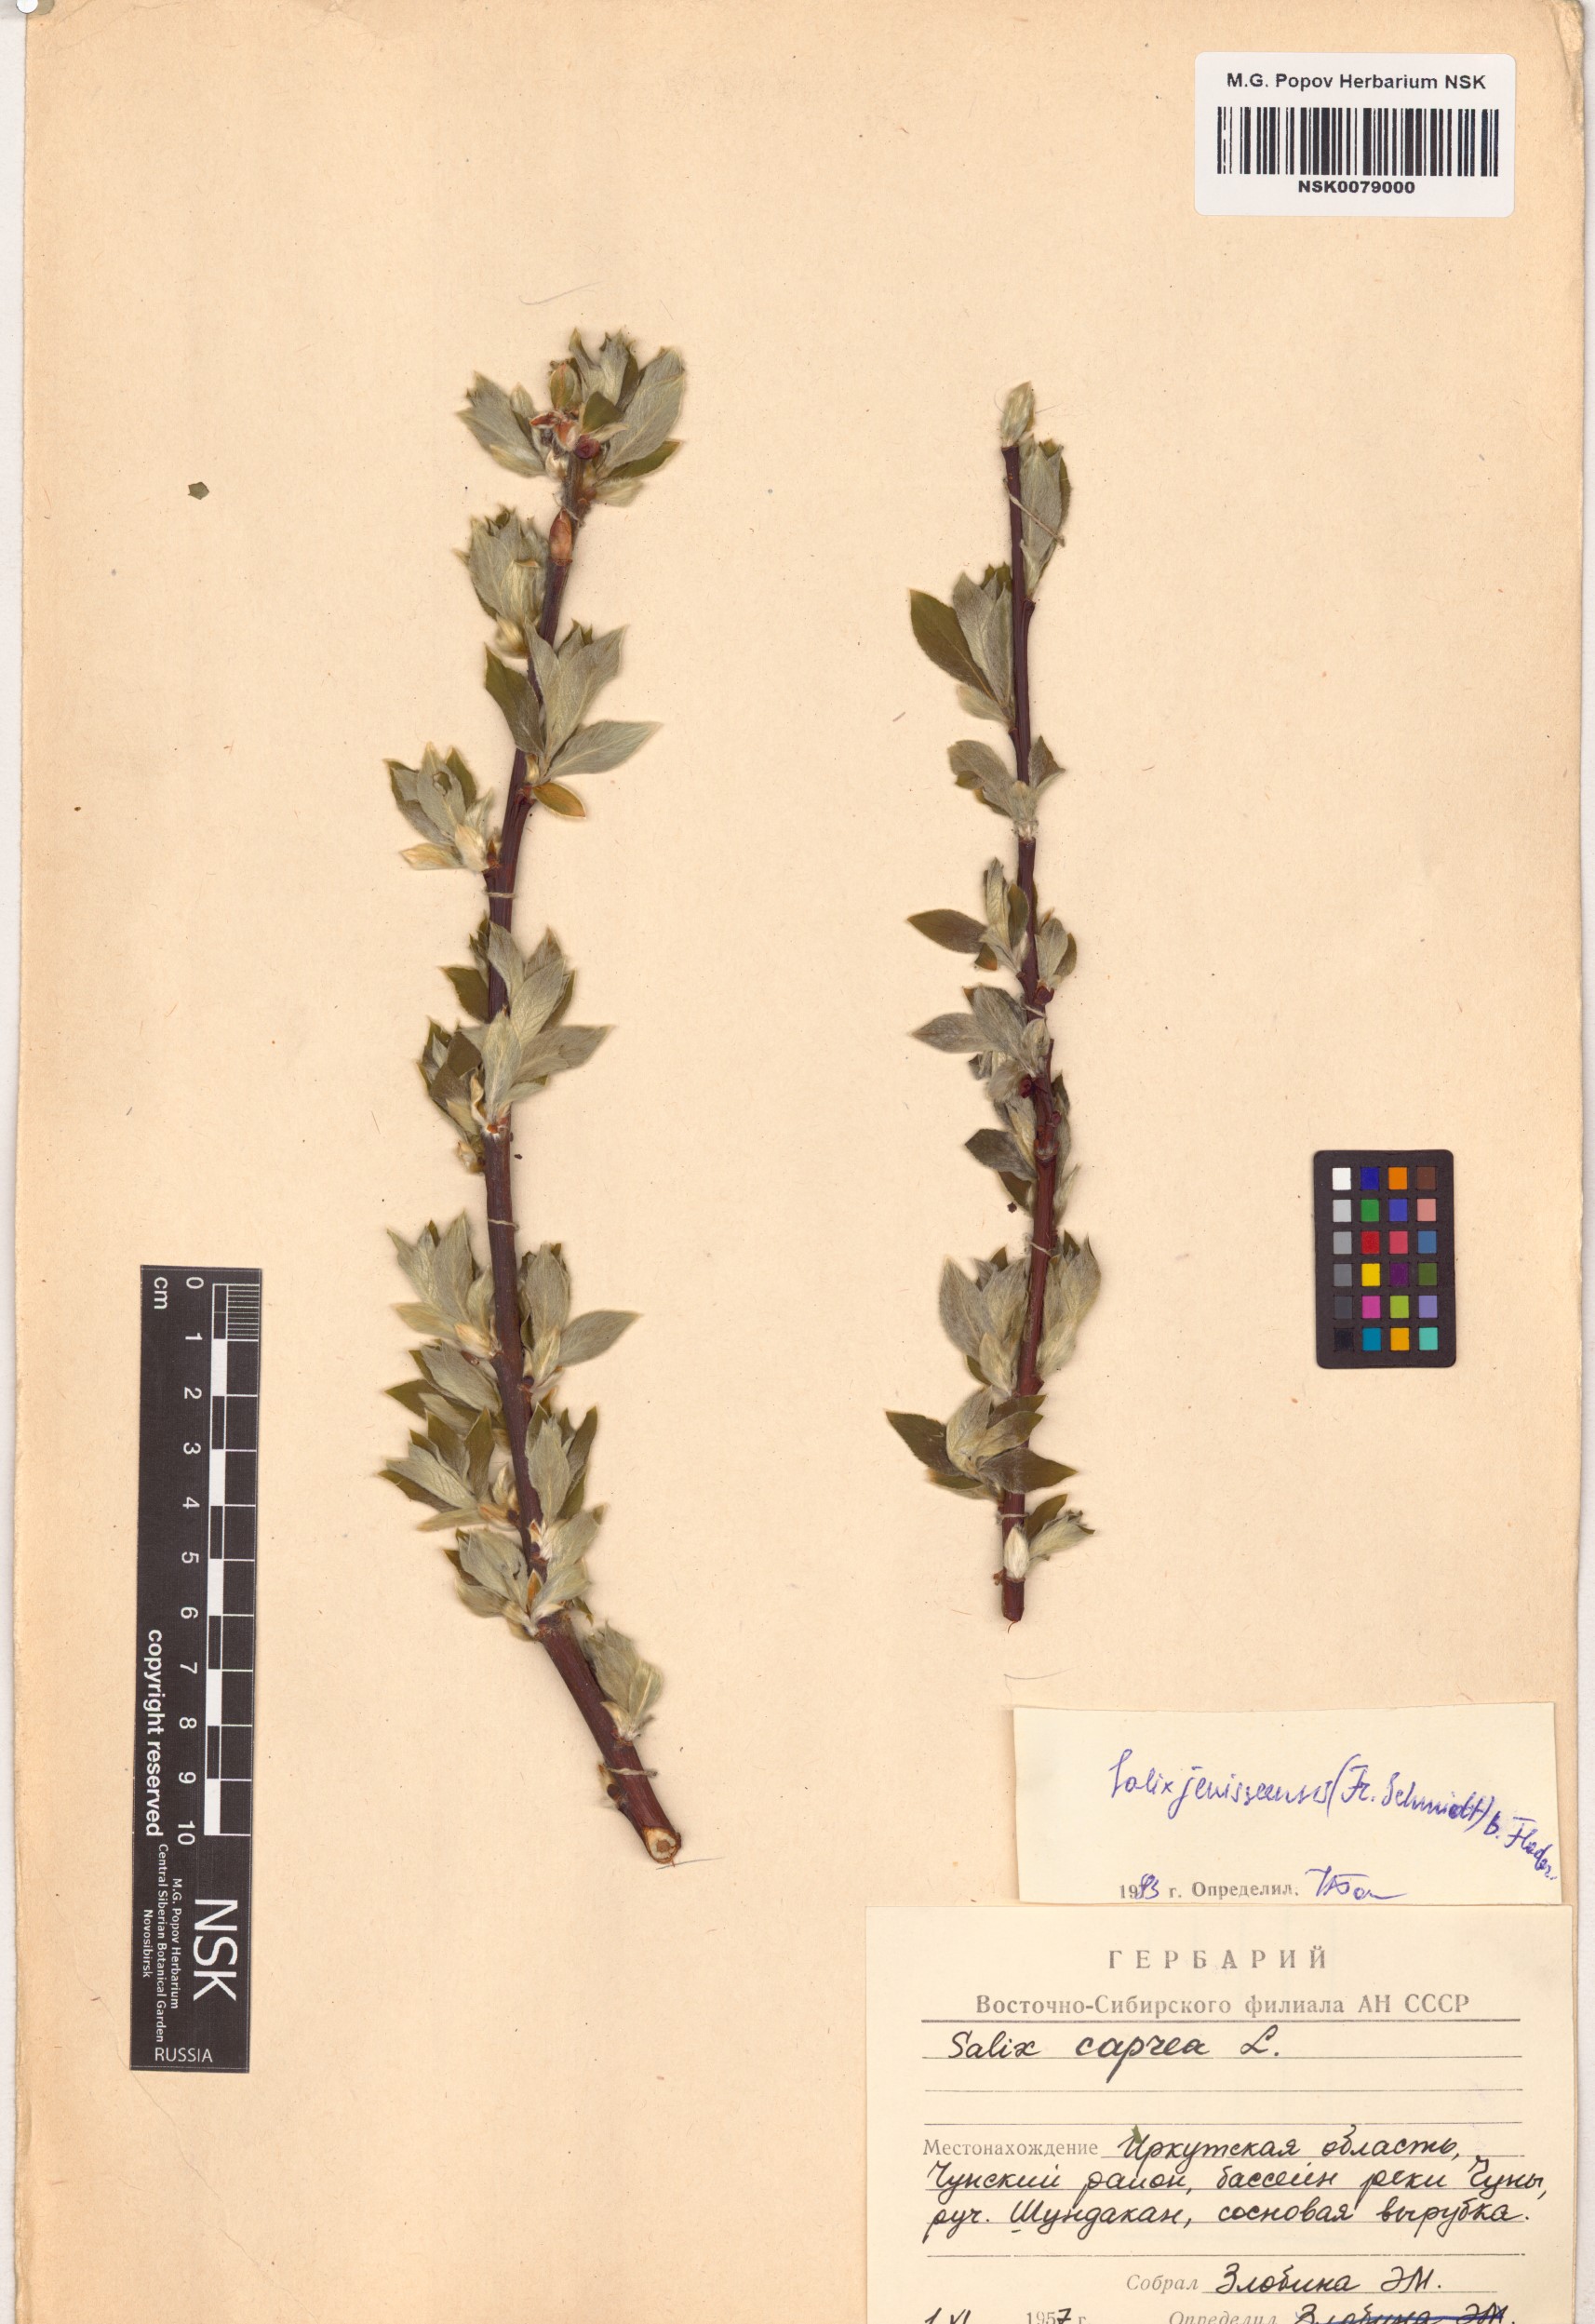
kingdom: Plantae
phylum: Tracheophyta
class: Magnoliopsida
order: Malpighiales
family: Salicaceae
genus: Salix
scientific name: Salix jenisseensis
